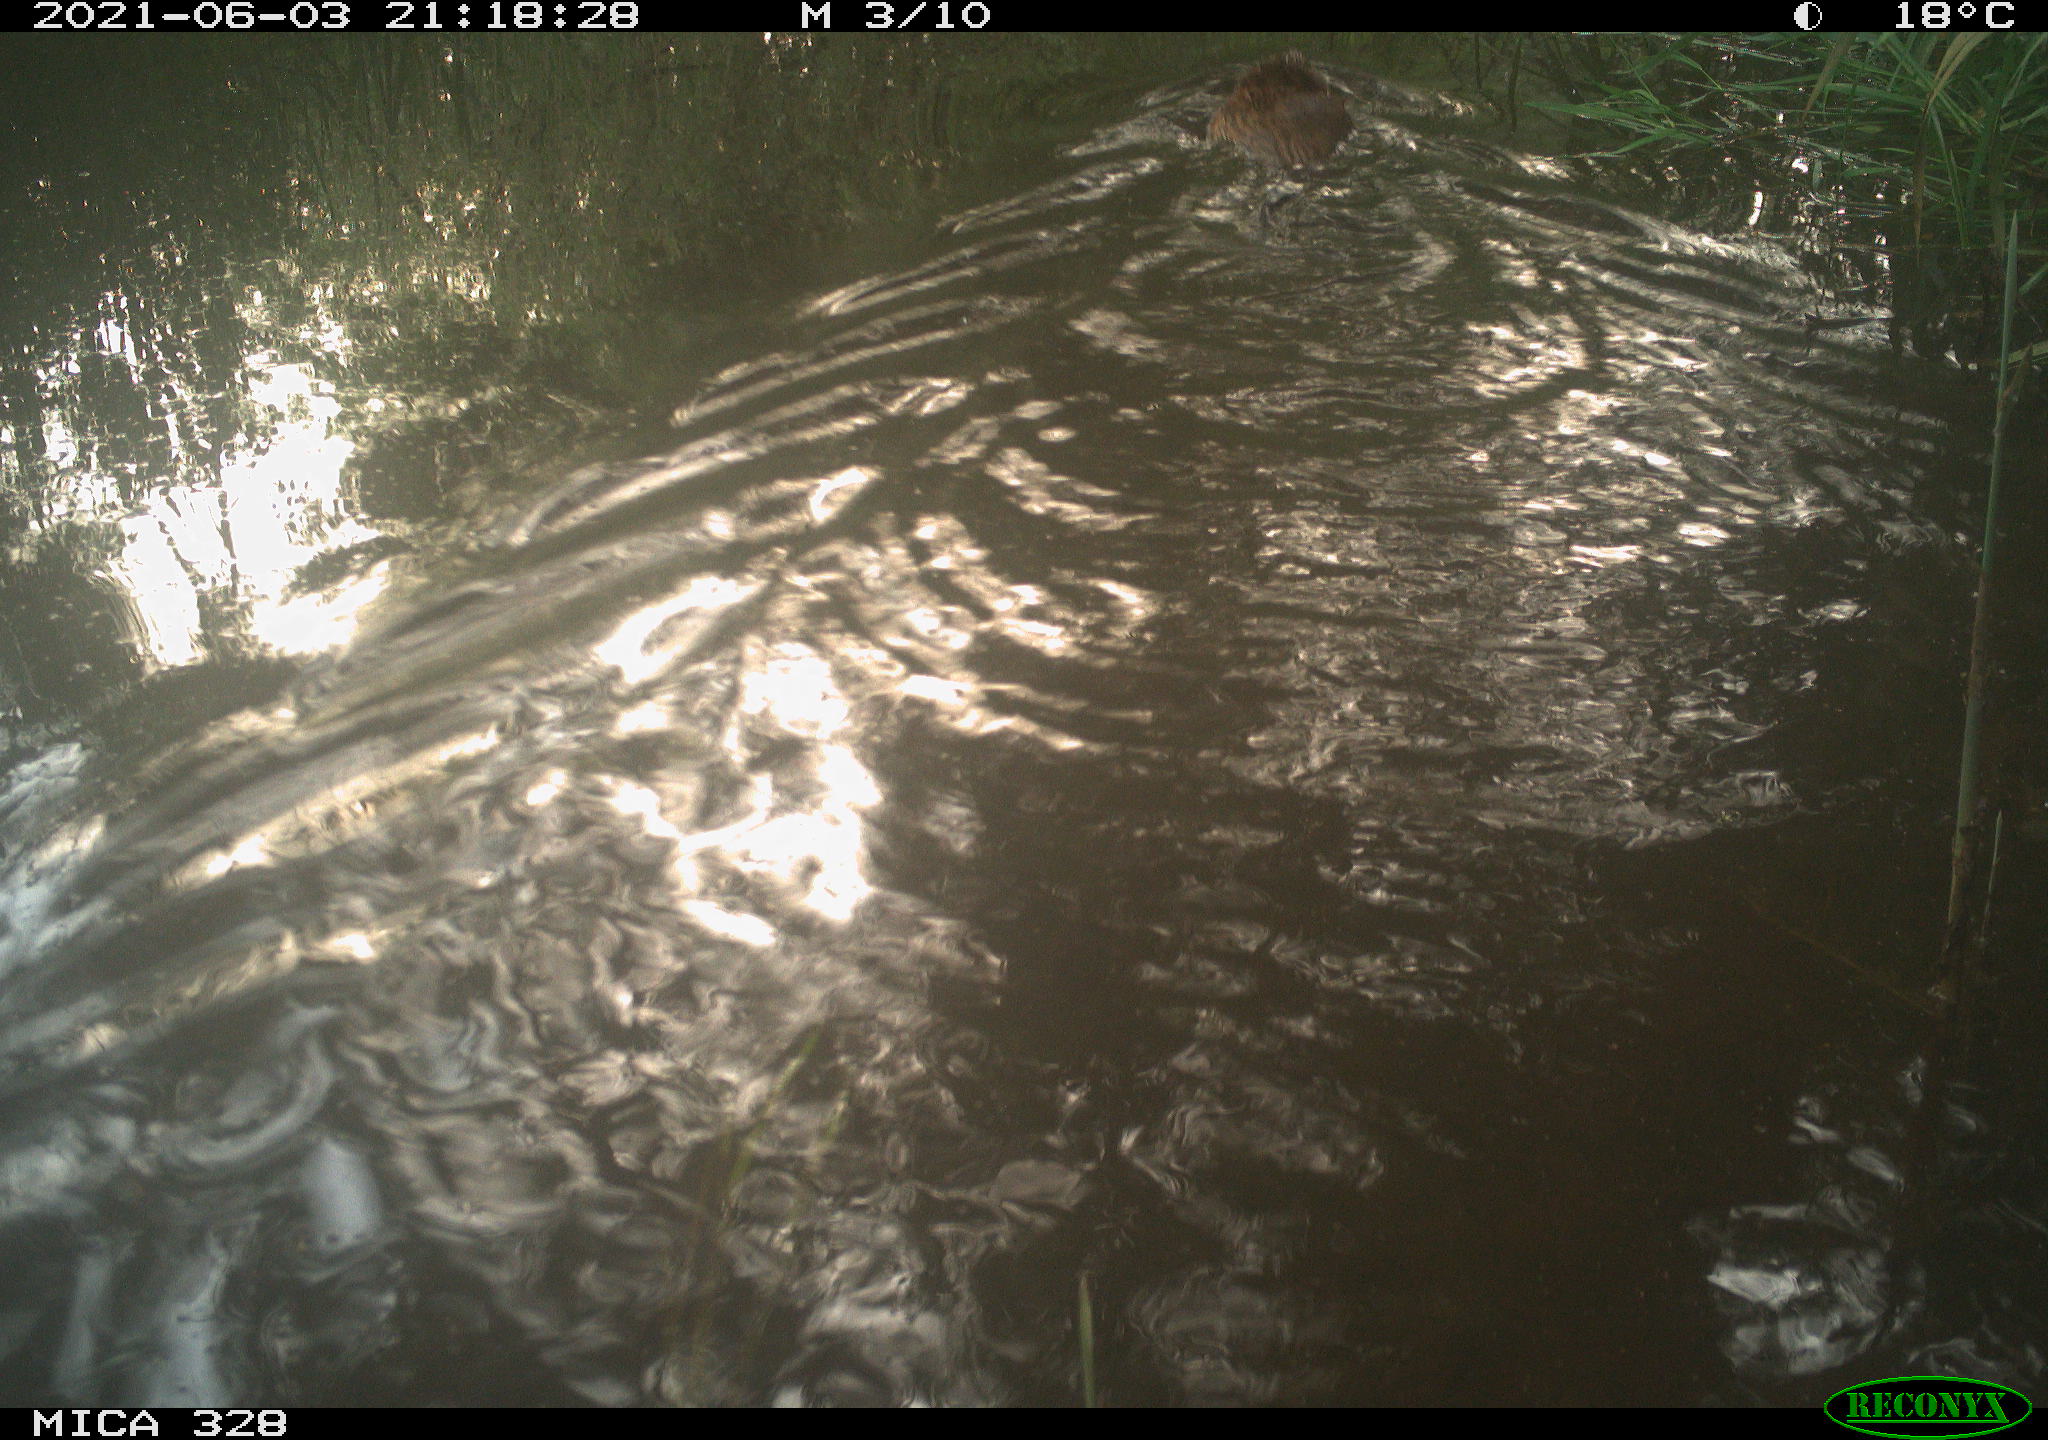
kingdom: Animalia
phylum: Chordata
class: Mammalia
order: Rodentia
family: Cricetidae
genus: Ondatra
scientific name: Ondatra zibethicus
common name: Muskrat
